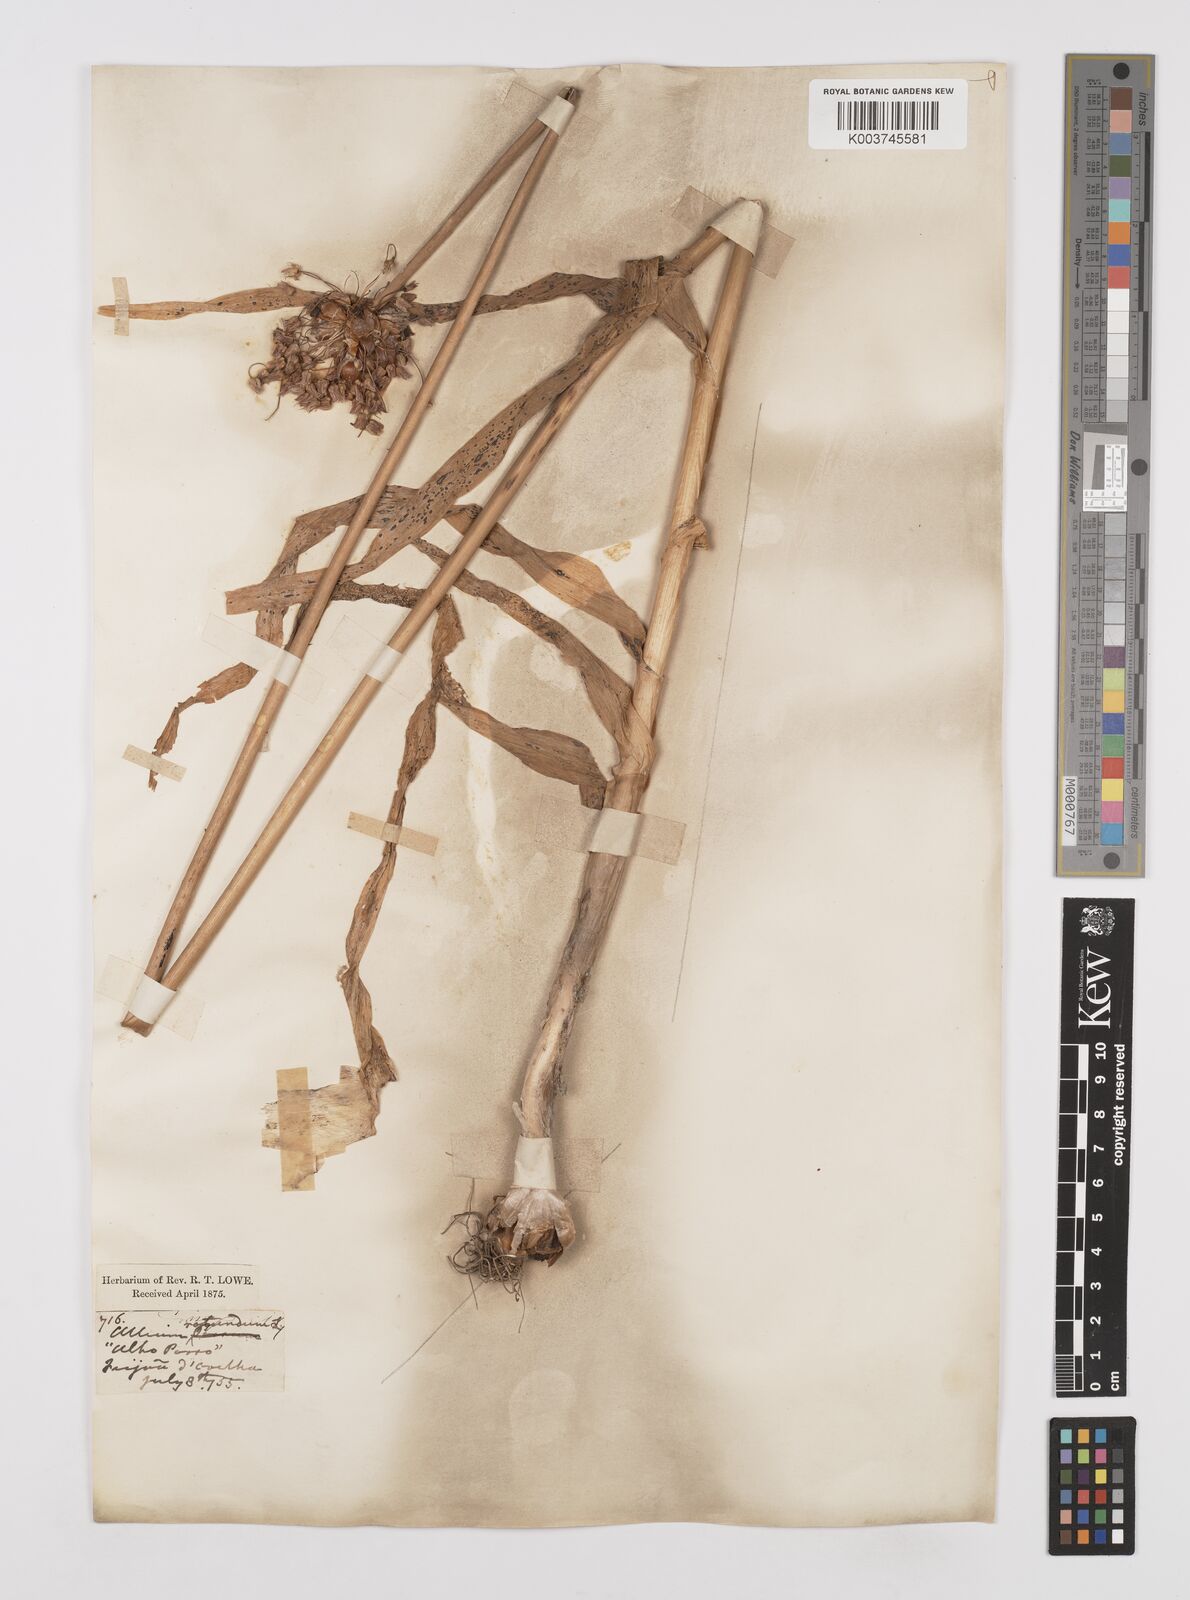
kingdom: Plantae
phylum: Tracheophyta
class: Liliopsida
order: Asparagales
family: Amaryllidaceae
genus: Allium
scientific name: Allium rotundum
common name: Sand leek
